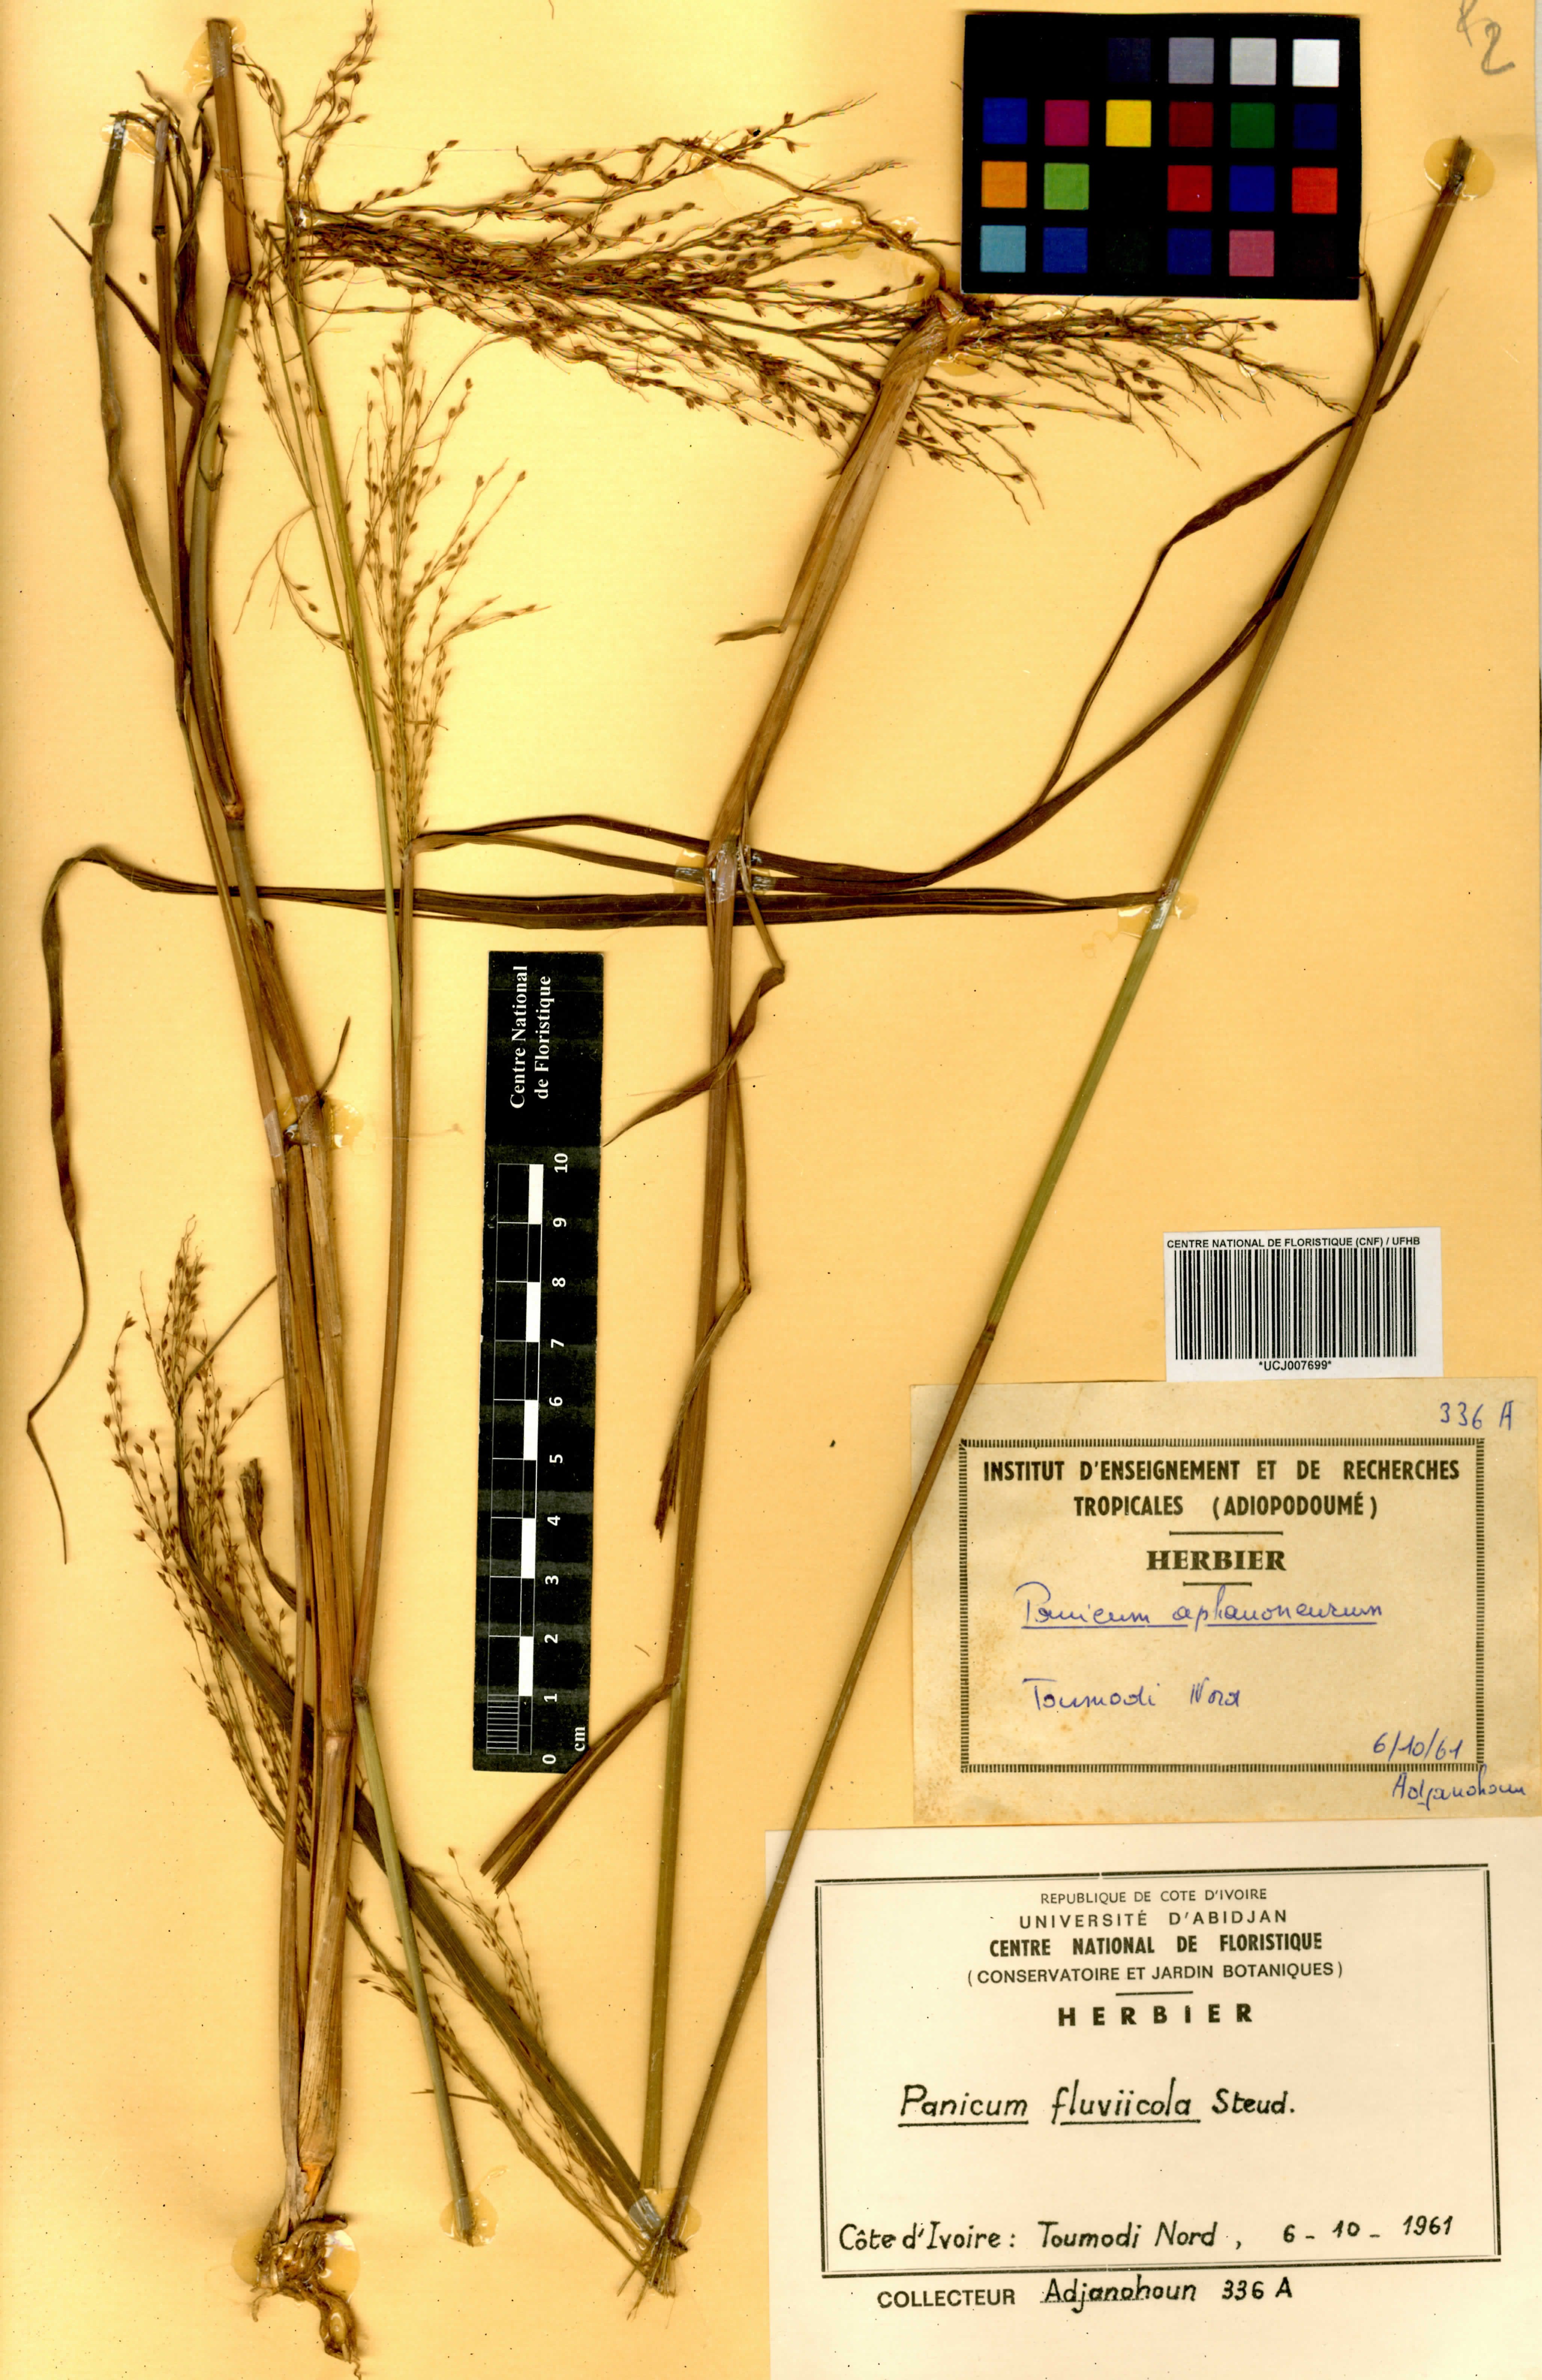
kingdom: Plantae
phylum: Tracheophyta
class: Liliopsida
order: Poales
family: Poaceae
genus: Panicum
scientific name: Panicum fluviicola
